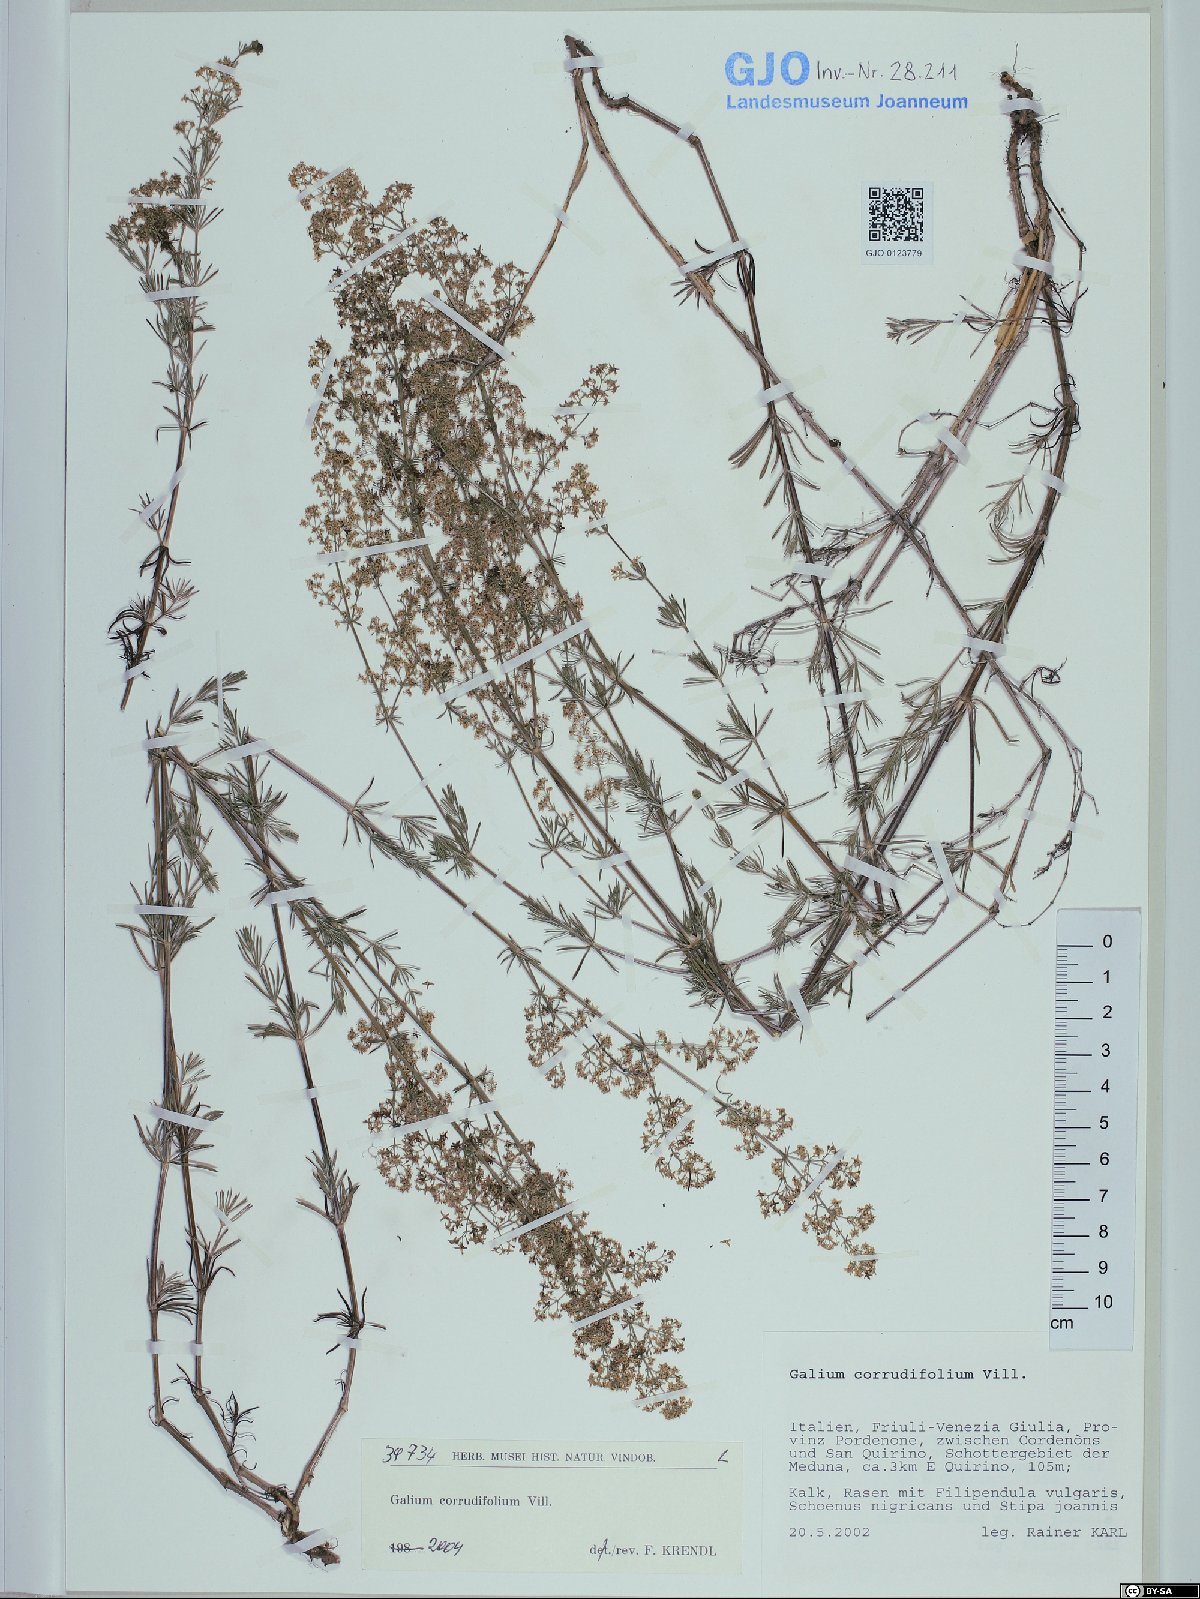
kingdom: Plantae
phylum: Tracheophyta
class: Magnoliopsida
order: Gentianales
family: Rubiaceae
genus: Galium
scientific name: Galium lucidum
